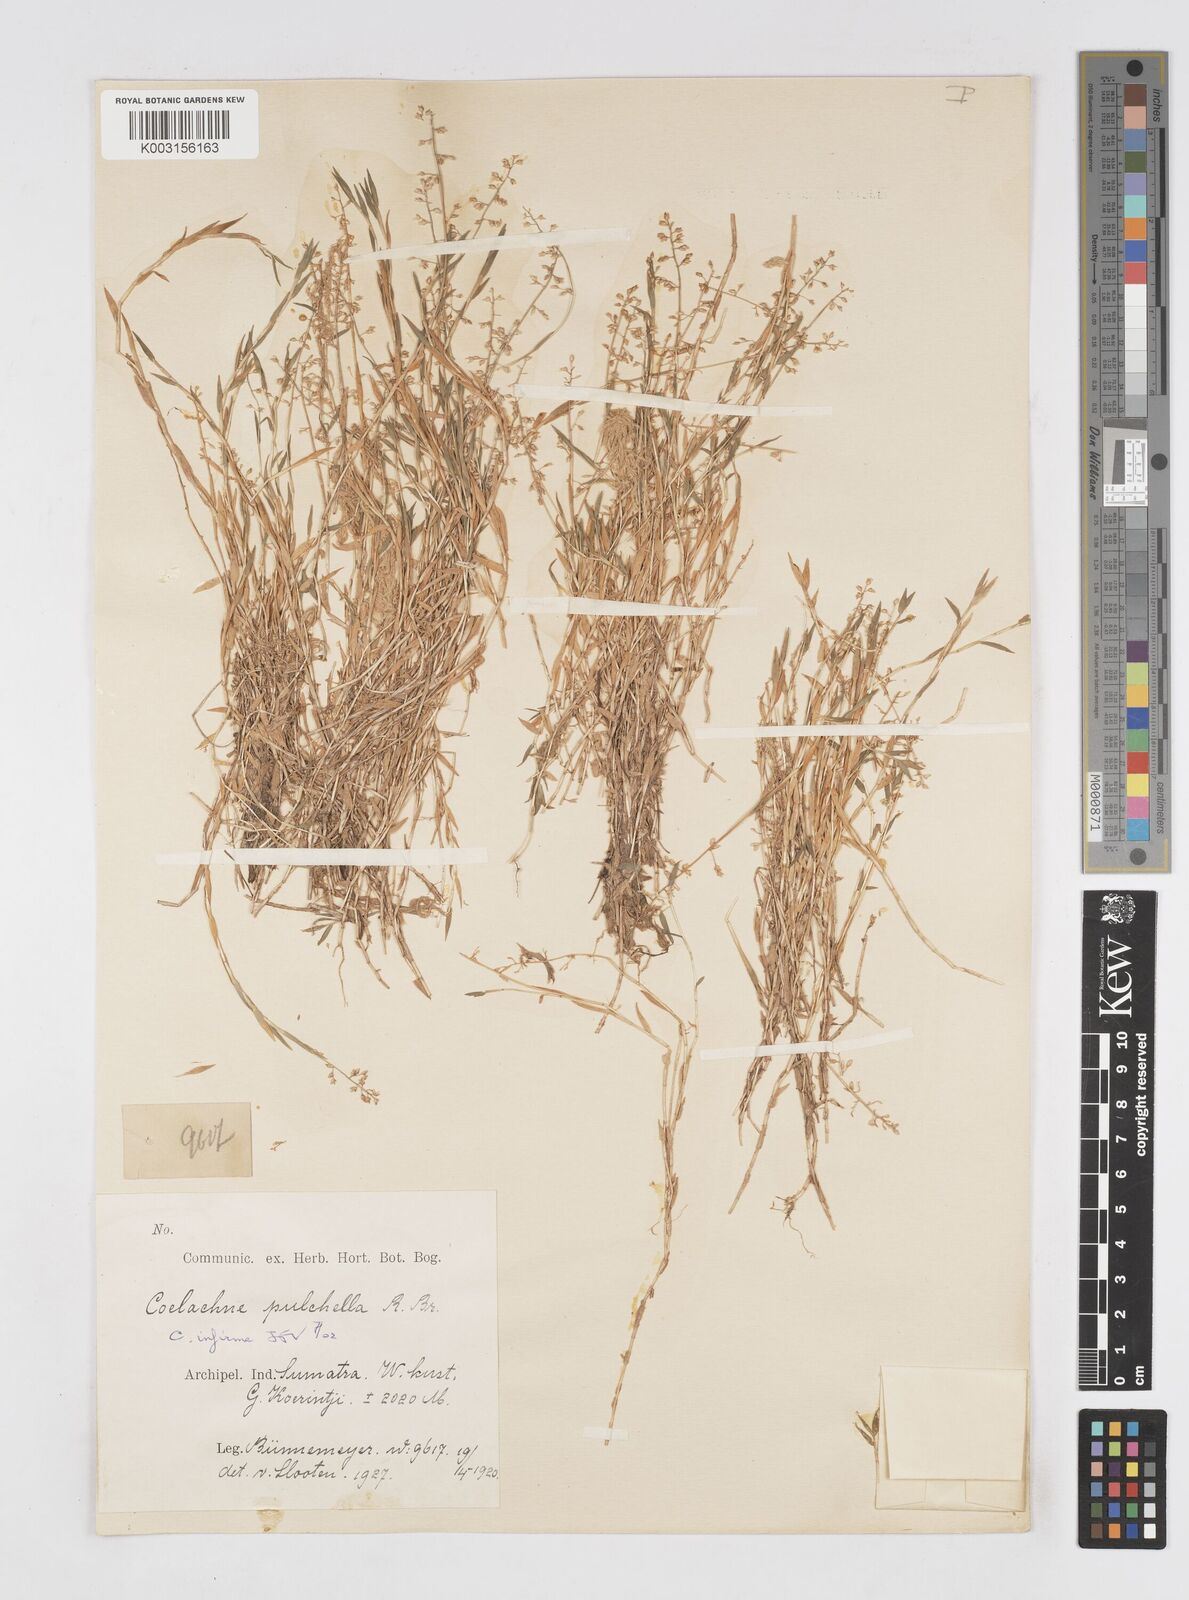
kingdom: Plantae
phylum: Tracheophyta
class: Liliopsida
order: Poales
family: Poaceae
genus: Coelachne
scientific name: Coelachne infirma
